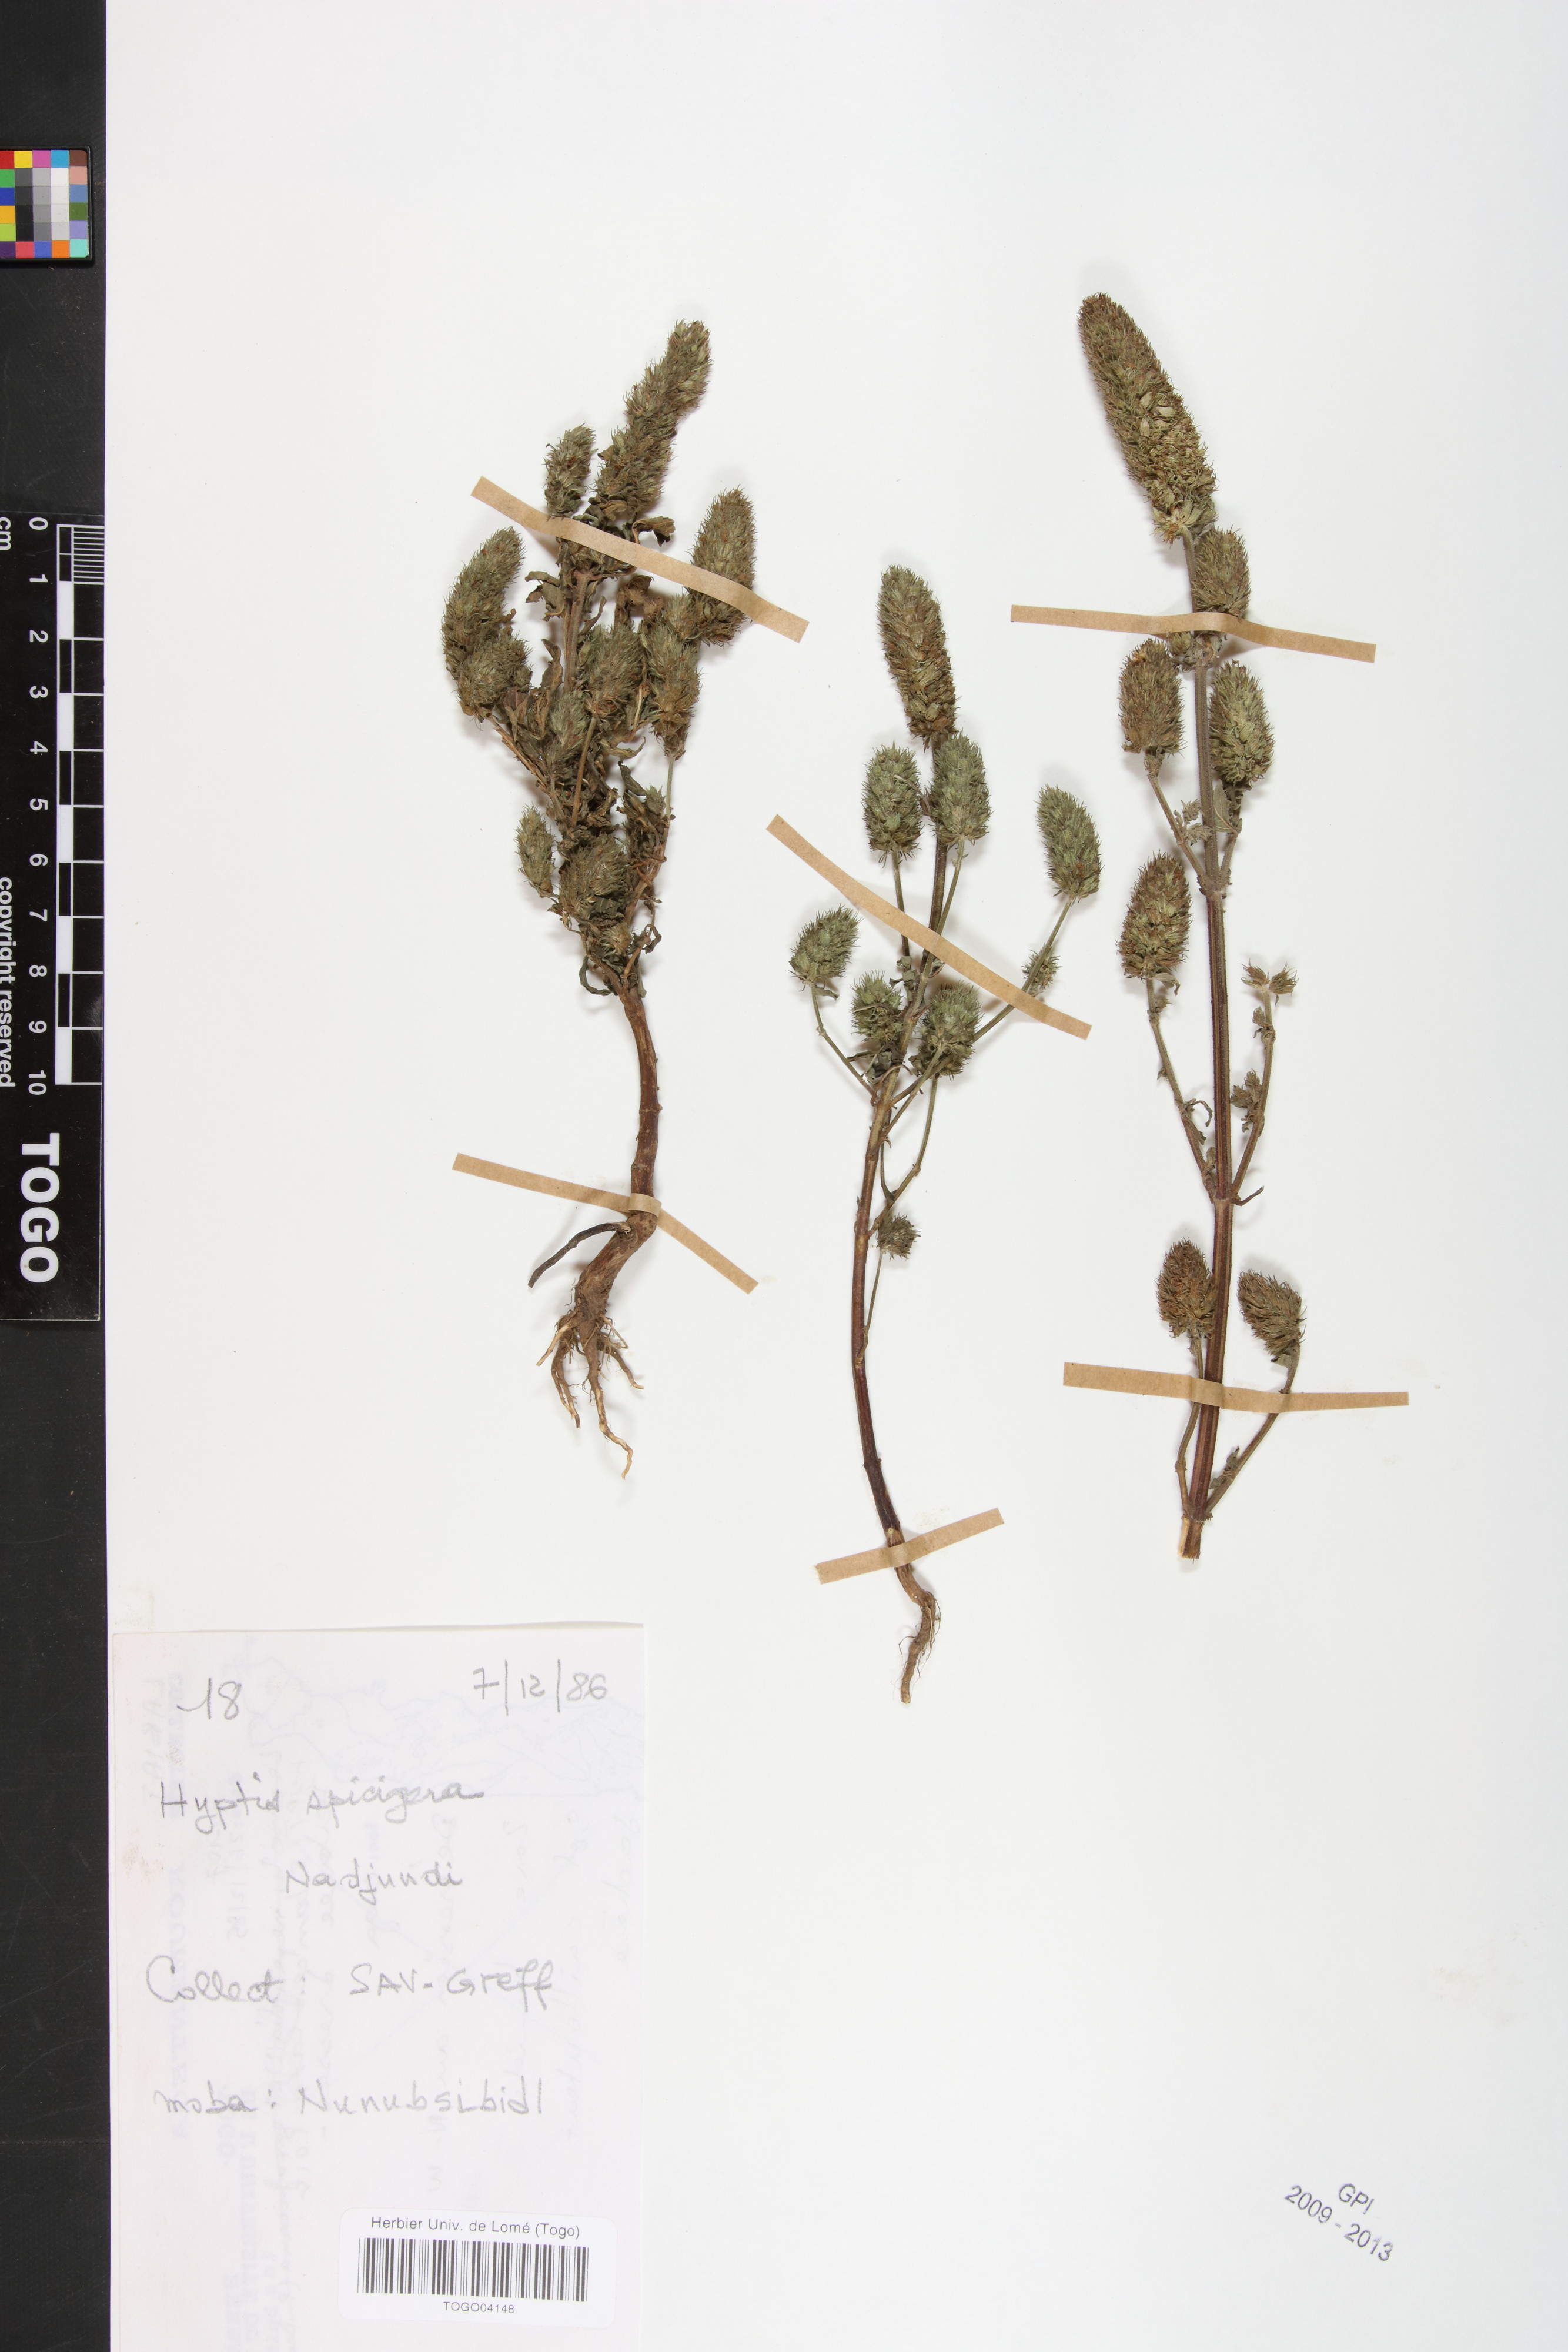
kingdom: Plantae
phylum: Tracheophyta
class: Magnoliopsida
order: Lamiales
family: Lamiaceae
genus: Cantinoa
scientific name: Cantinoa americana
